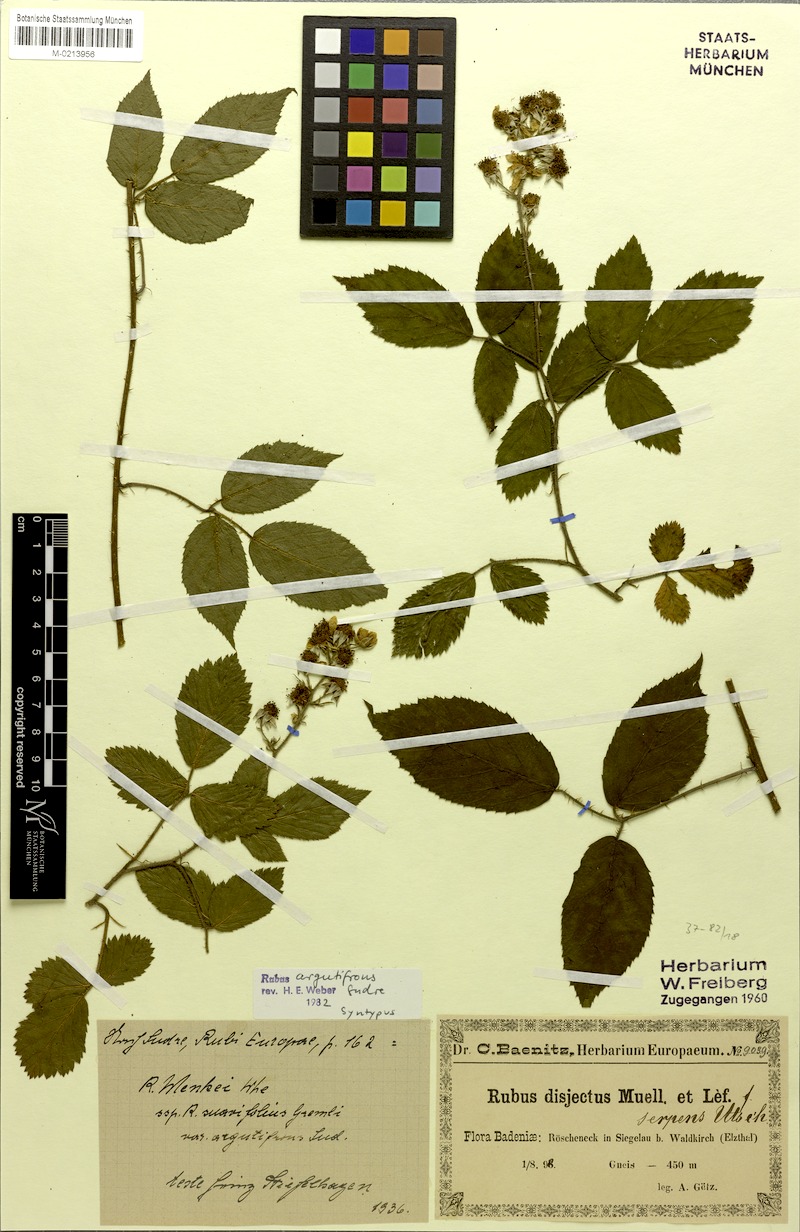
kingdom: Plantae
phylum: Tracheophyta
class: Magnoliopsida
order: Rosales
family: Rosaceae
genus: Rubus
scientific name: Rubus argutifrons
